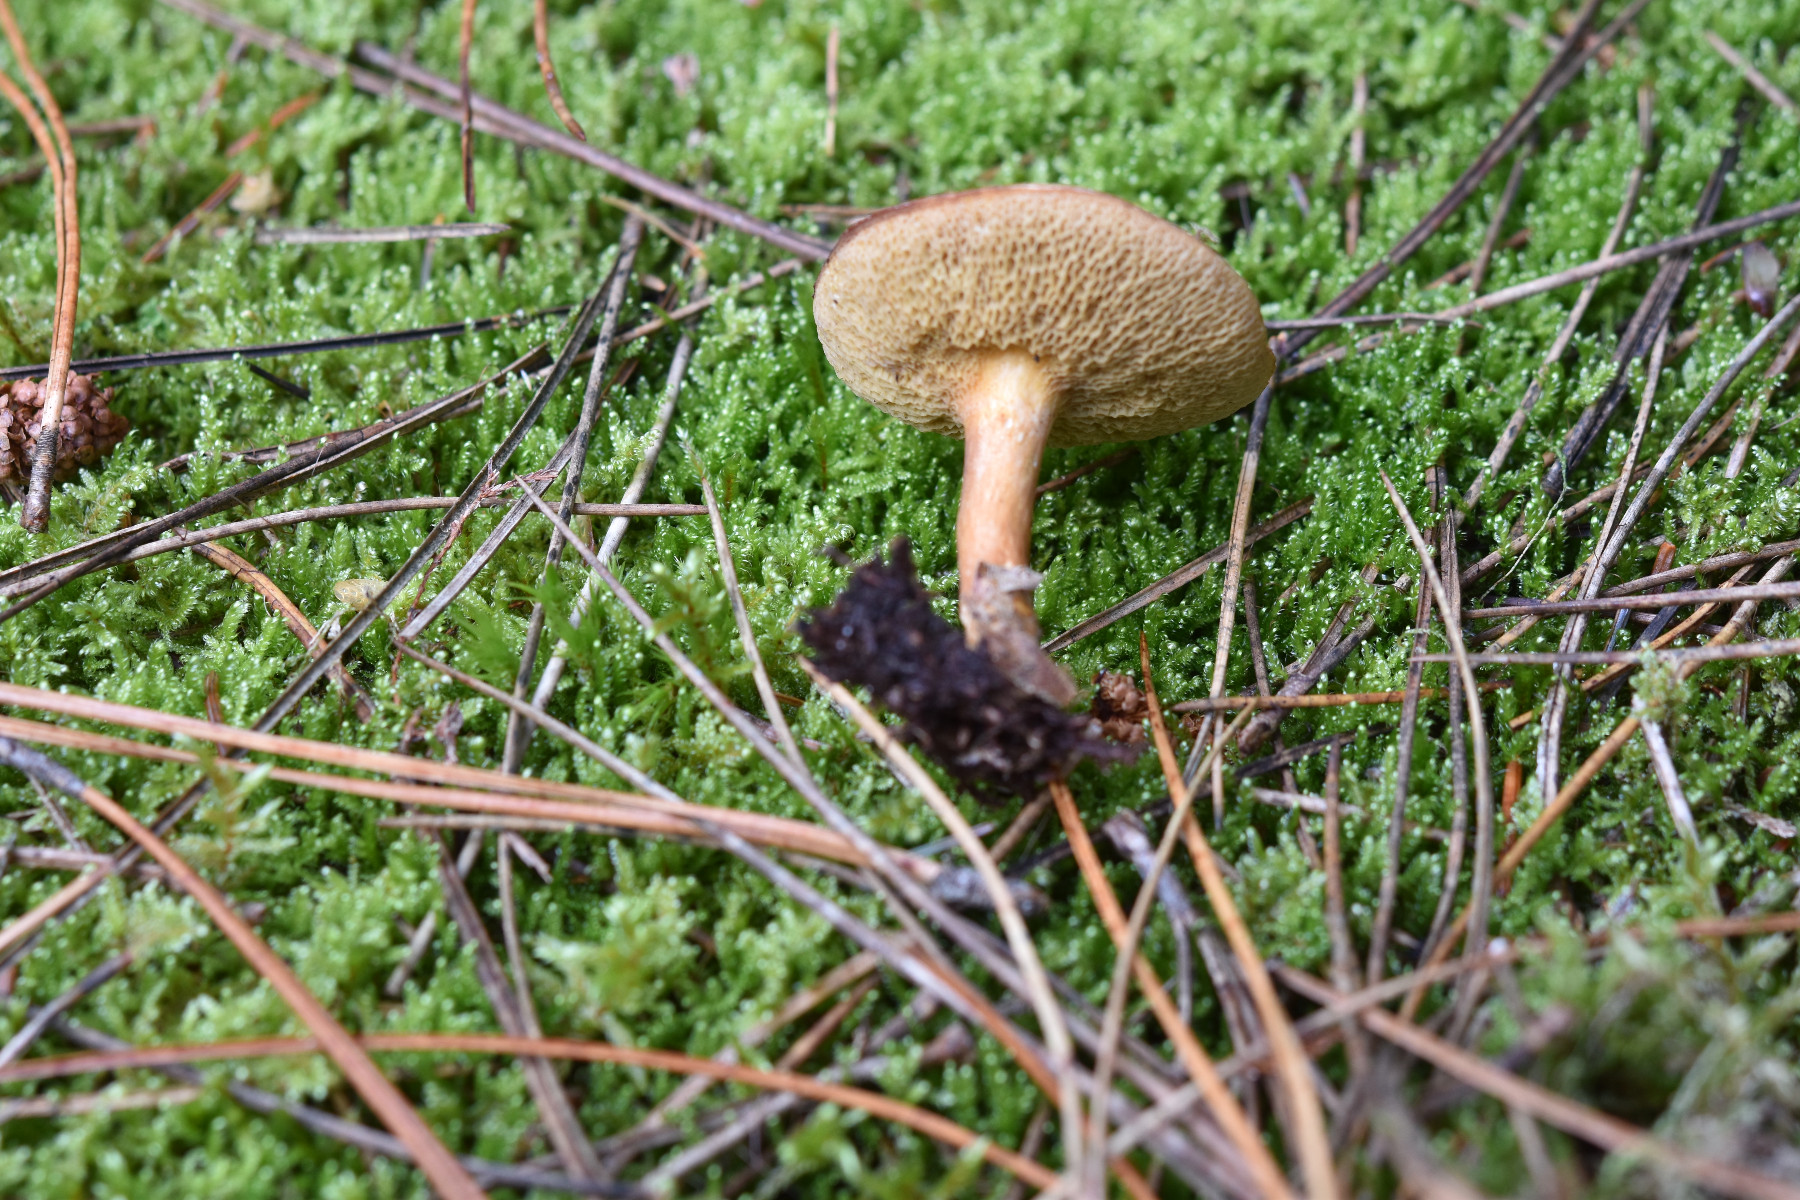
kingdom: Fungi
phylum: Basidiomycota
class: Agaricomycetes
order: Boletales
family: Suillaceae
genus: Suillus
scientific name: Suillus bovinus
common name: grovporet slimrørhat
